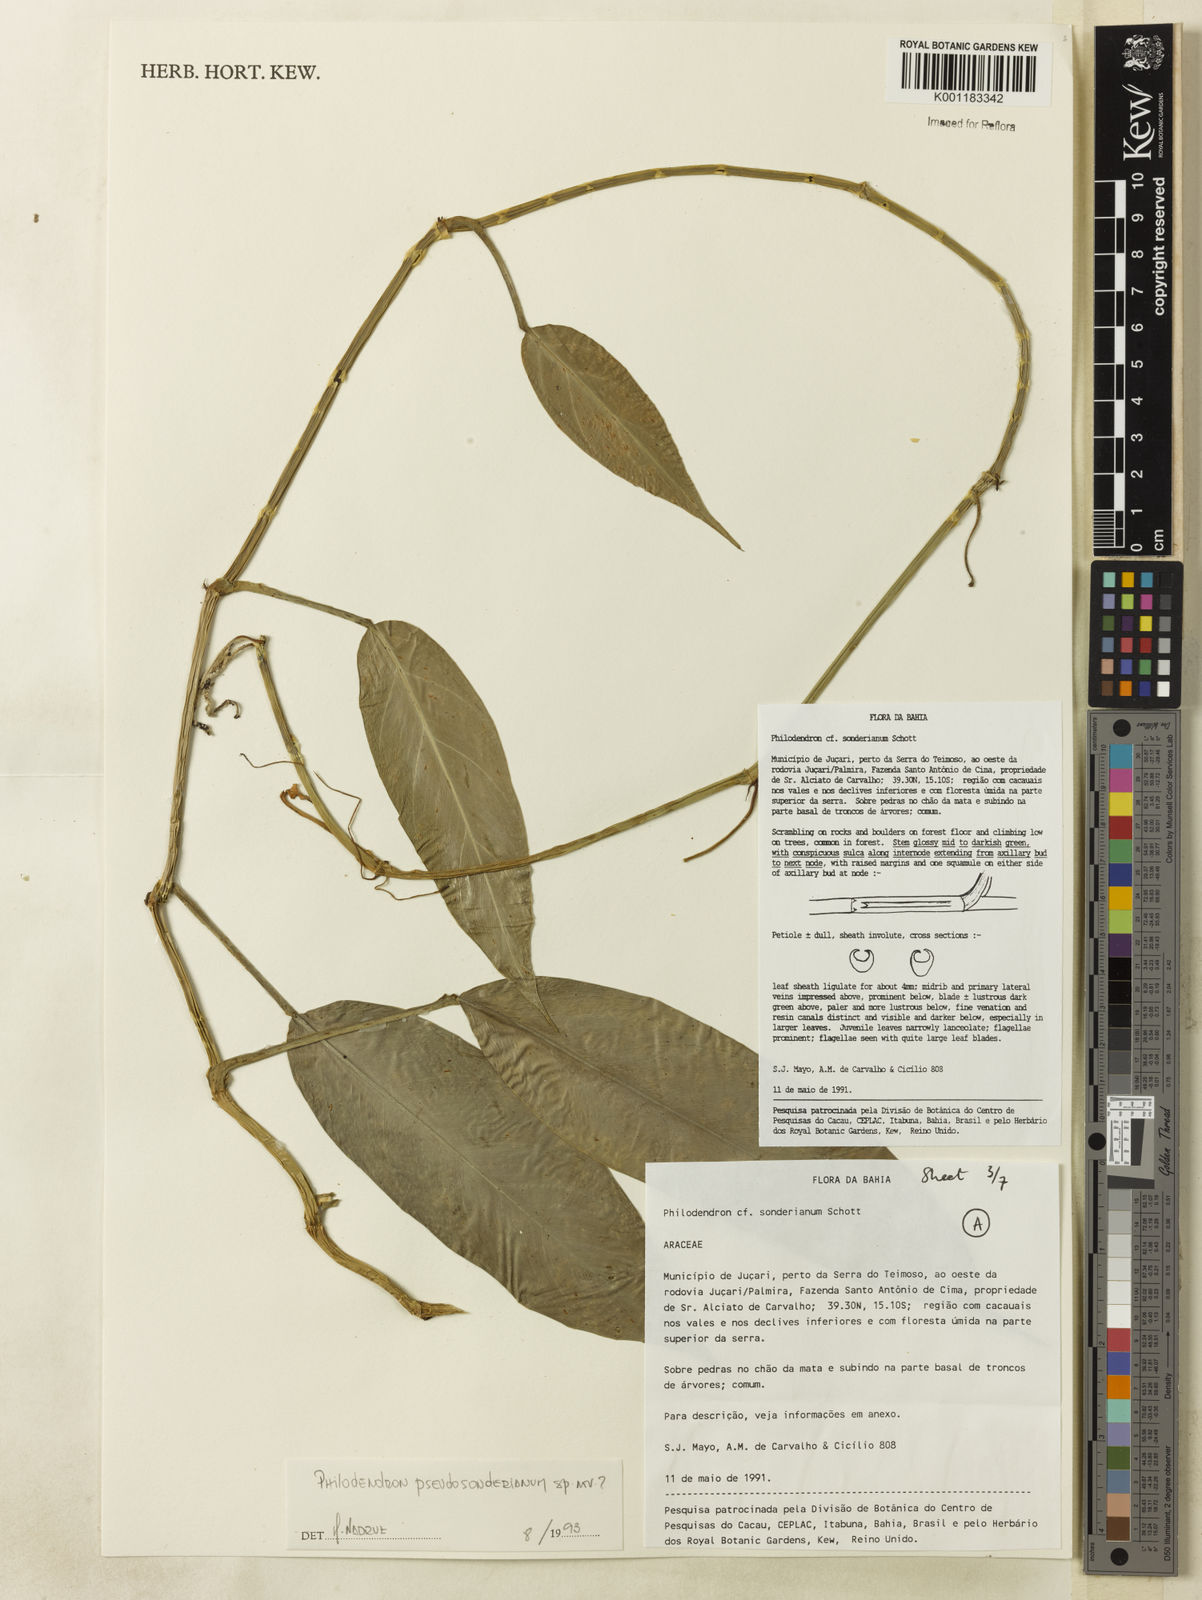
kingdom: Plantae
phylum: Tracheophyta
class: Liliopsida
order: Alismatales
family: Araceae
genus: Philodendron
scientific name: Philodendron
